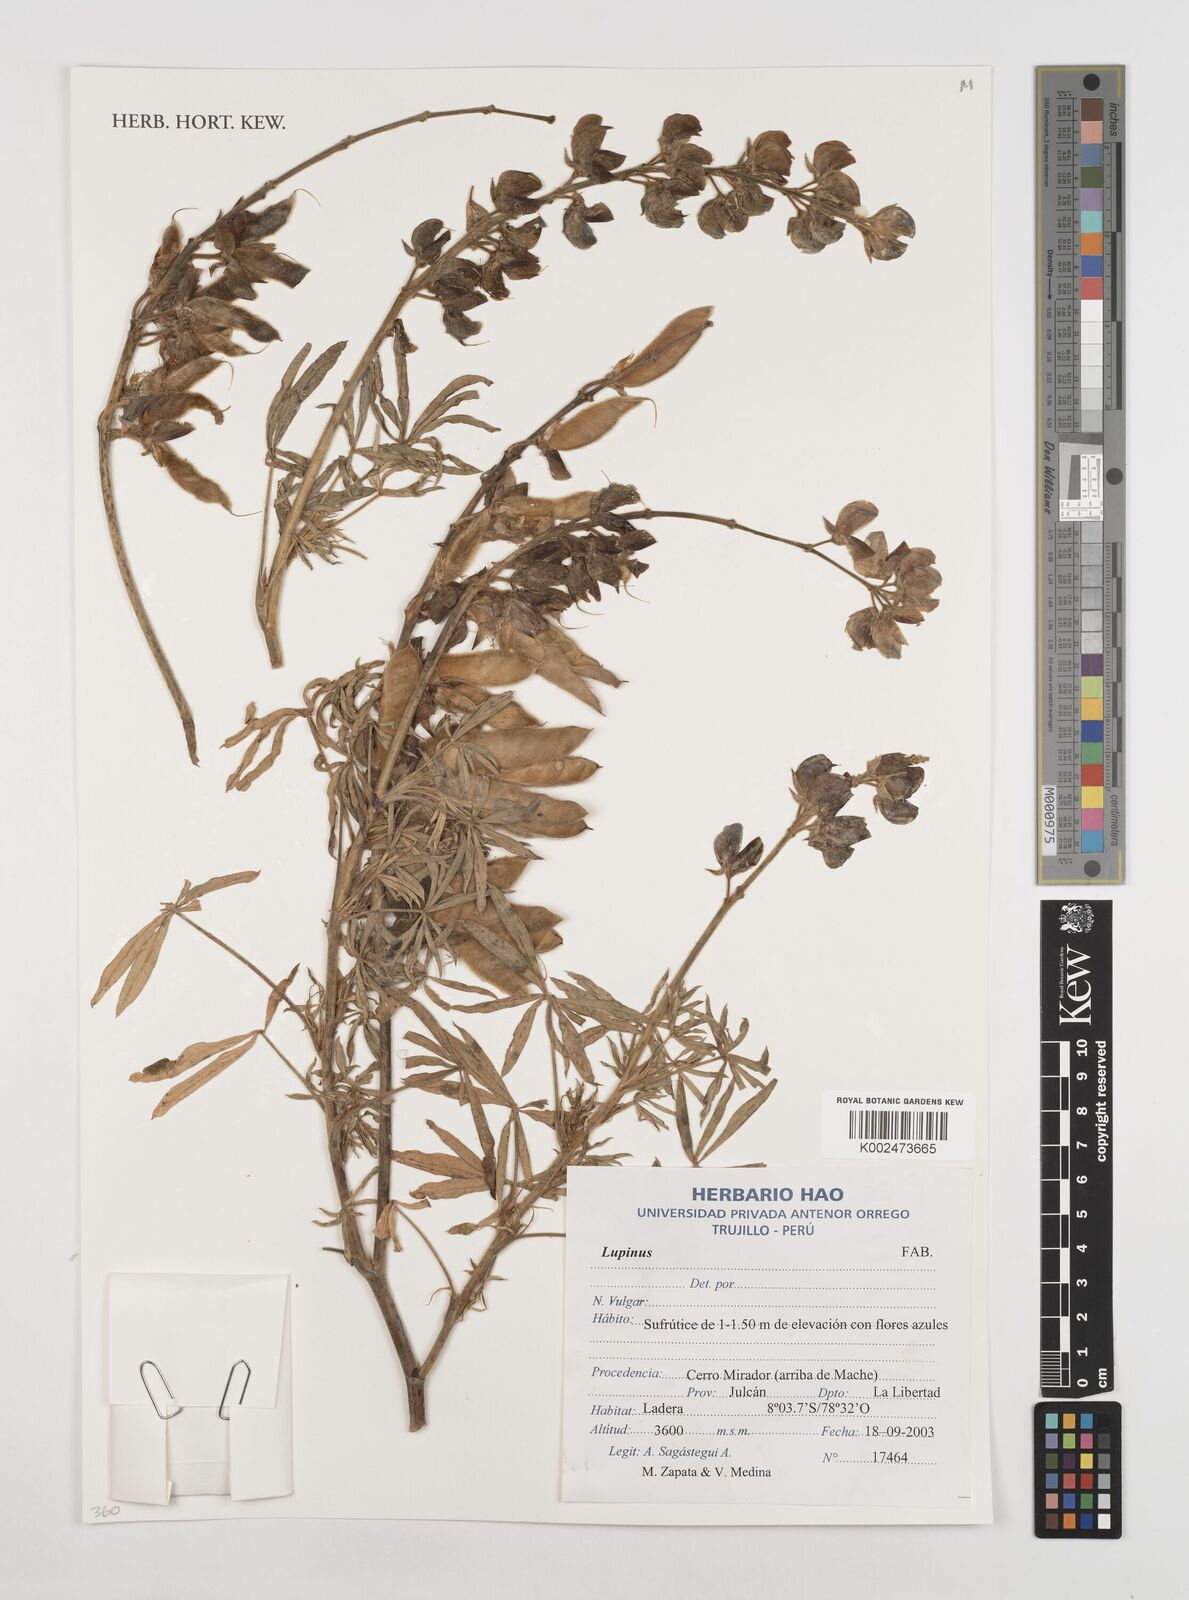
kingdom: Plantae
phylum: Tracheophyta
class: Magnoliopsida
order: Fabales
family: Fabaceae
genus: Lupinus
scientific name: Lupinus
